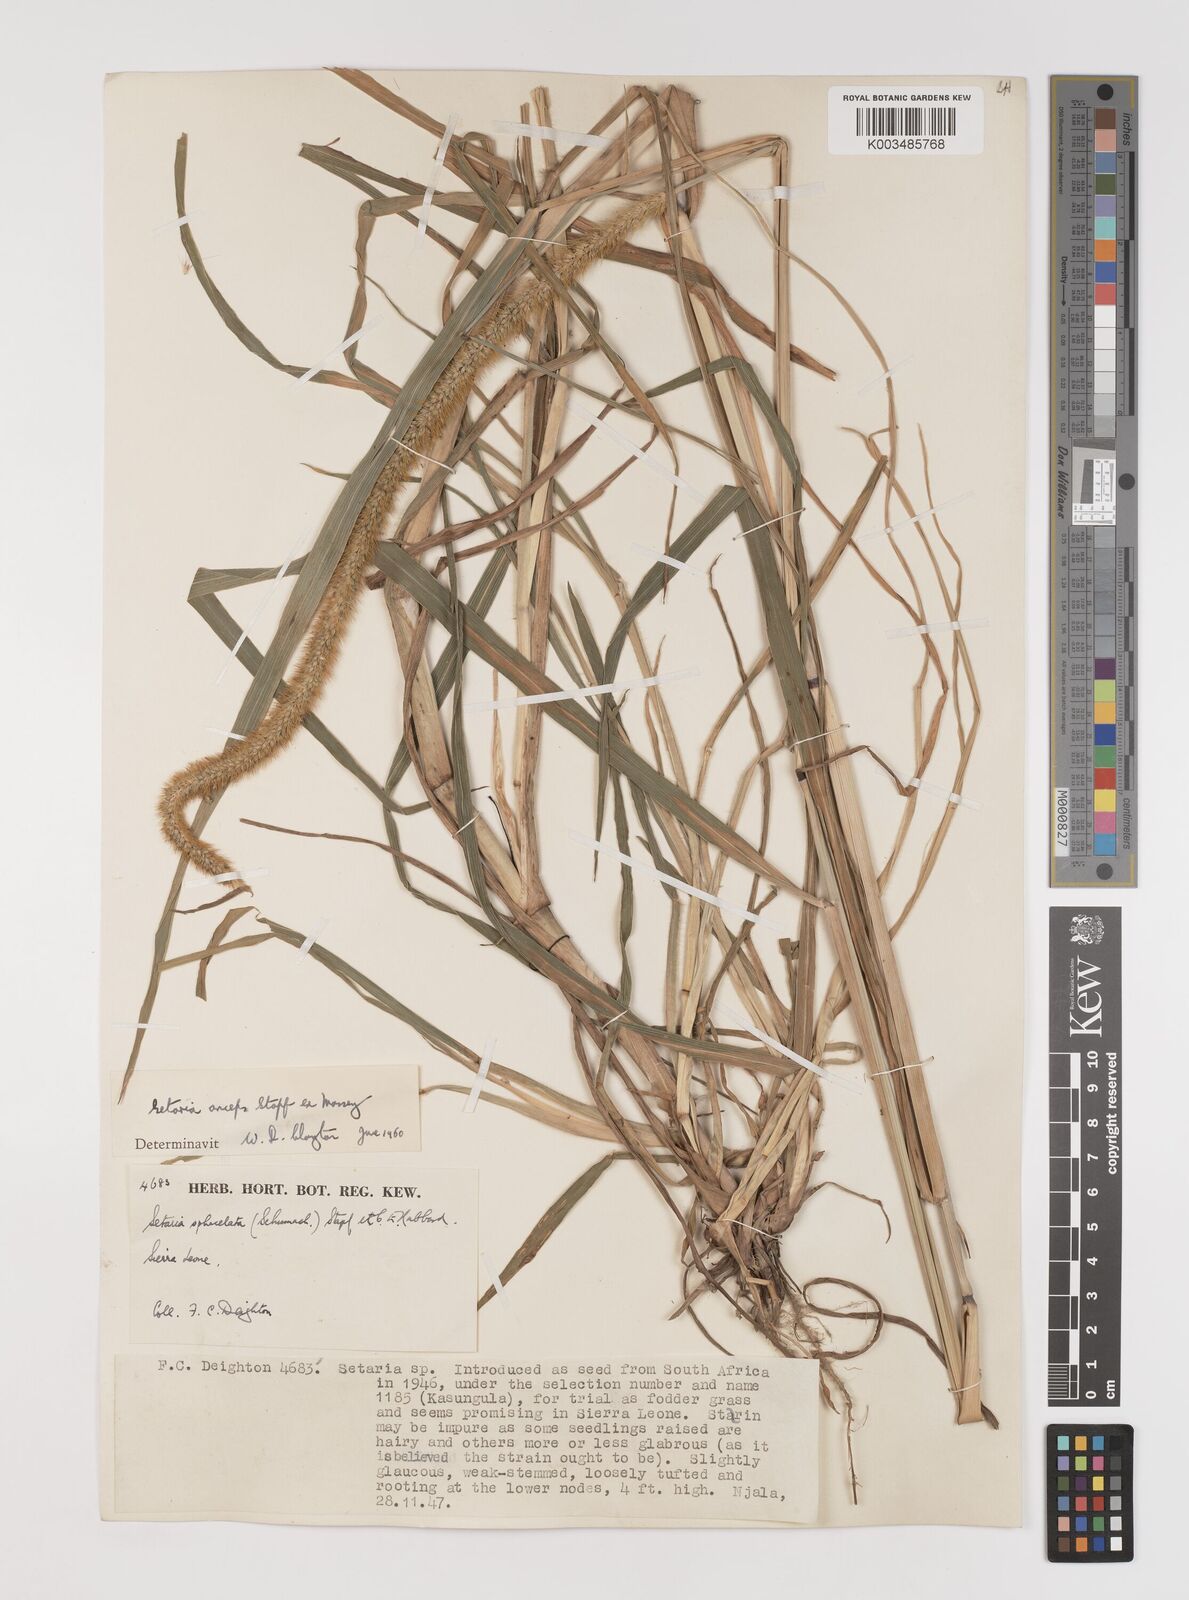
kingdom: Plantae
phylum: Tracheophyta
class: Liliopsida
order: Poales
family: Poaceae
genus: Setaria
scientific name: Setaria sphacelata
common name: African bristlegrass
